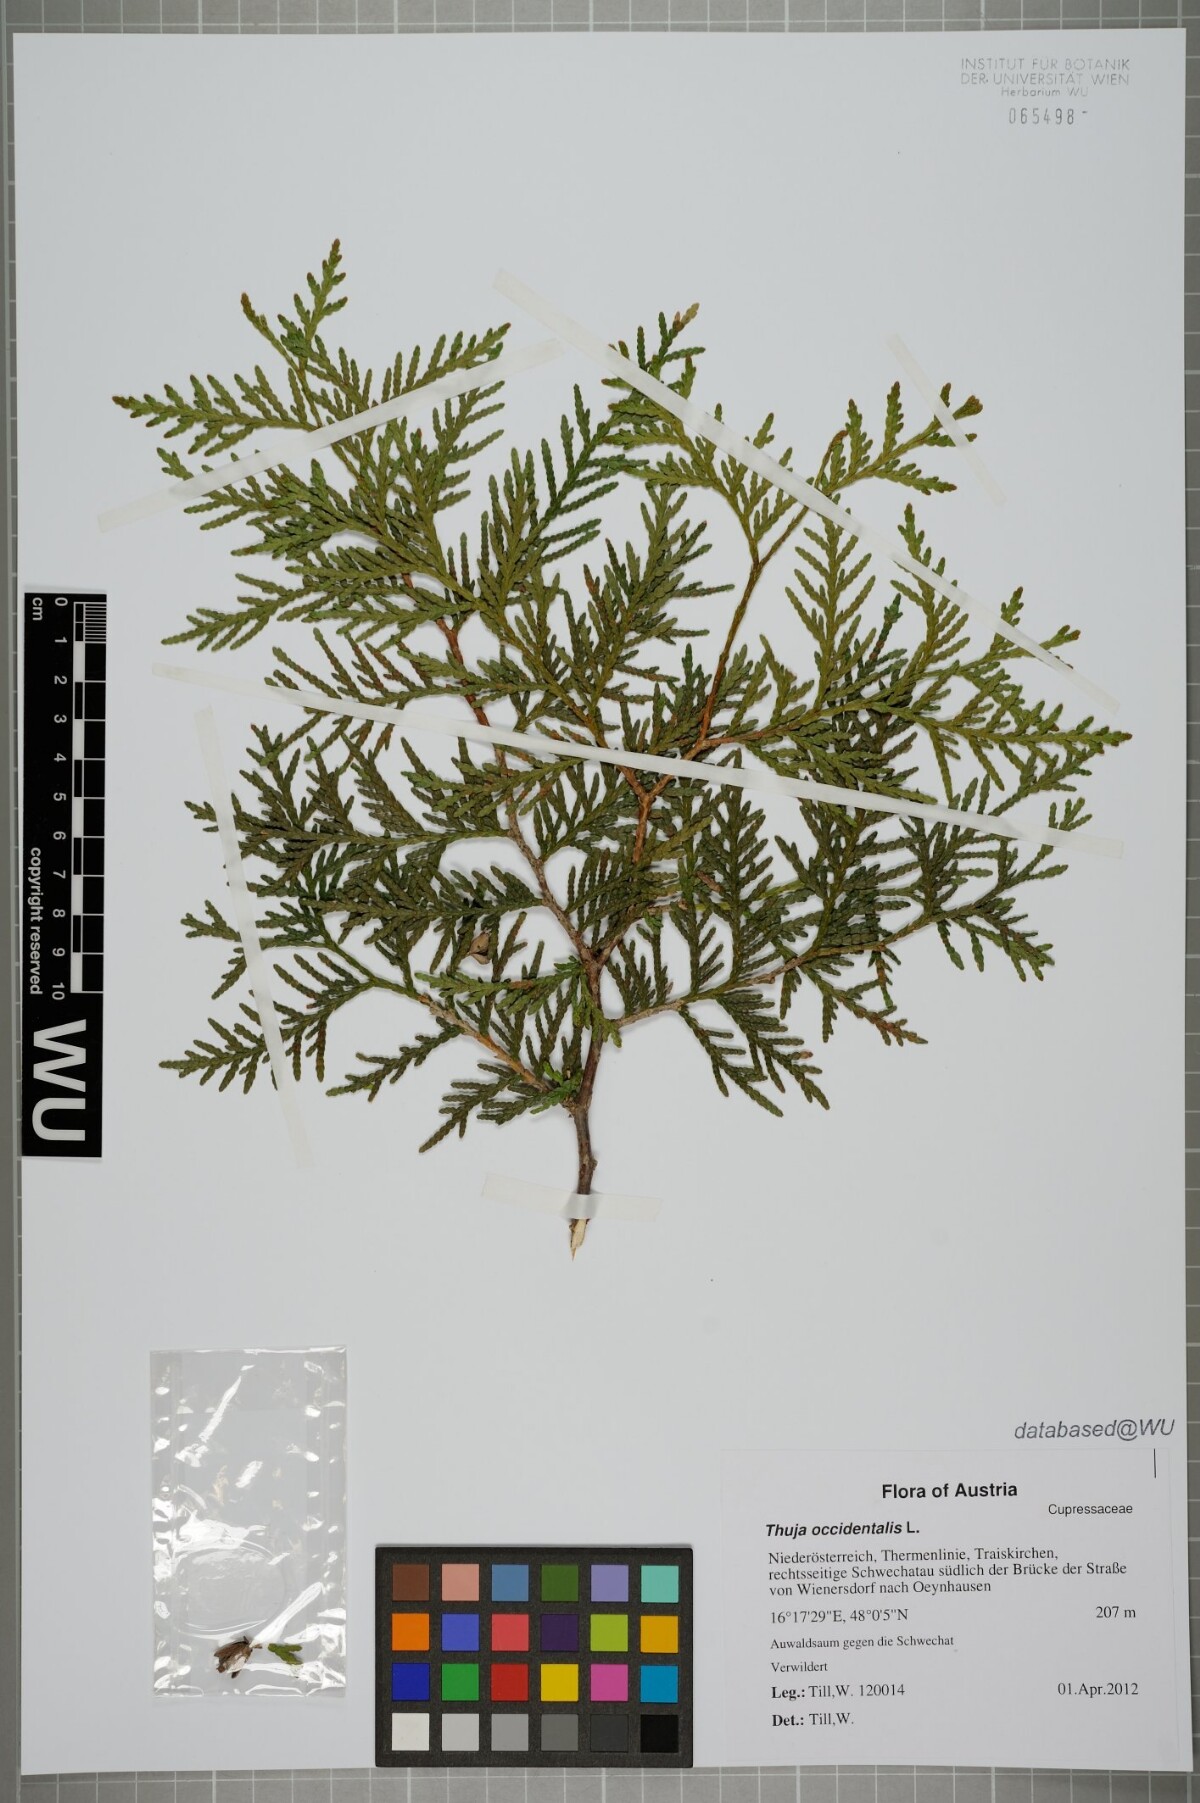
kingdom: Plantae
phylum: Tracheophyta
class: Pinopsida
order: Pinales
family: Cupressaceae
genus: Thuja
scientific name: Thuja occidentalis
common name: Northern white-cedar
